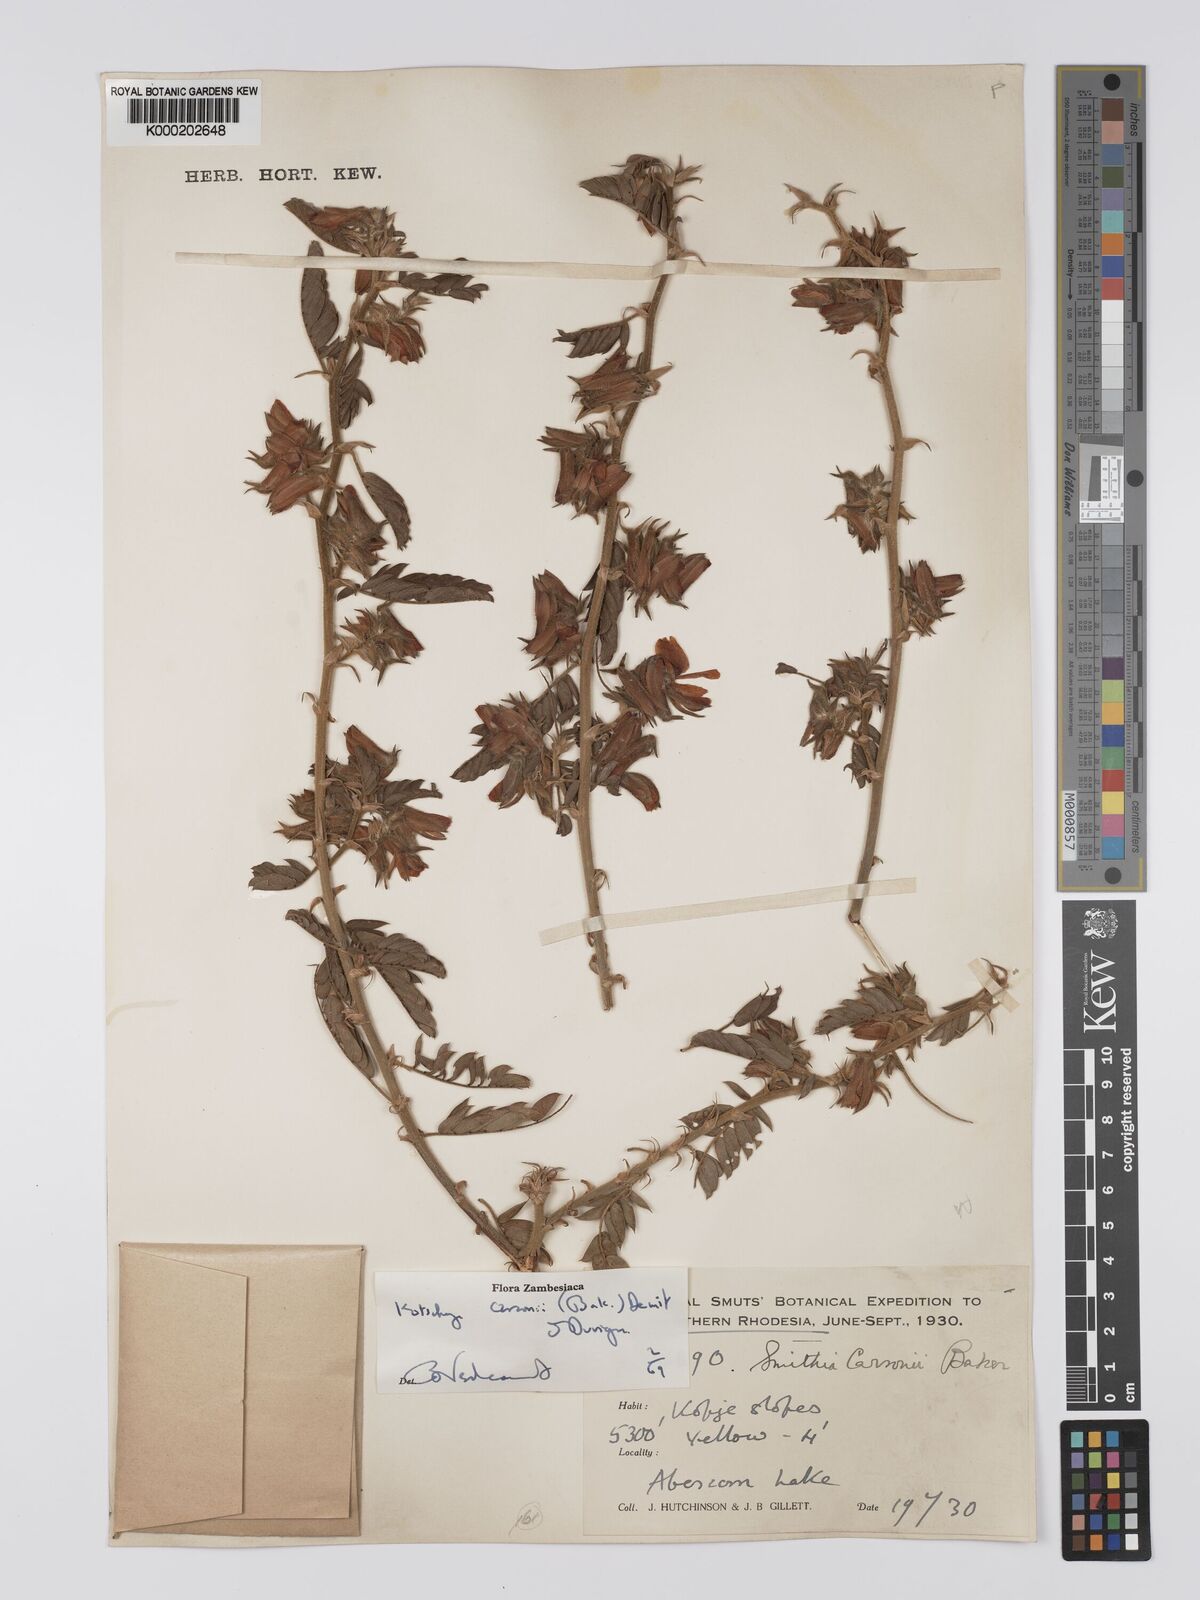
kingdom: Plantae
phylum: Tracheophyta
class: Magnoliopsida
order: Fabales
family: Fabaceae
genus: Kotschya
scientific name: Kotschya carsonii
